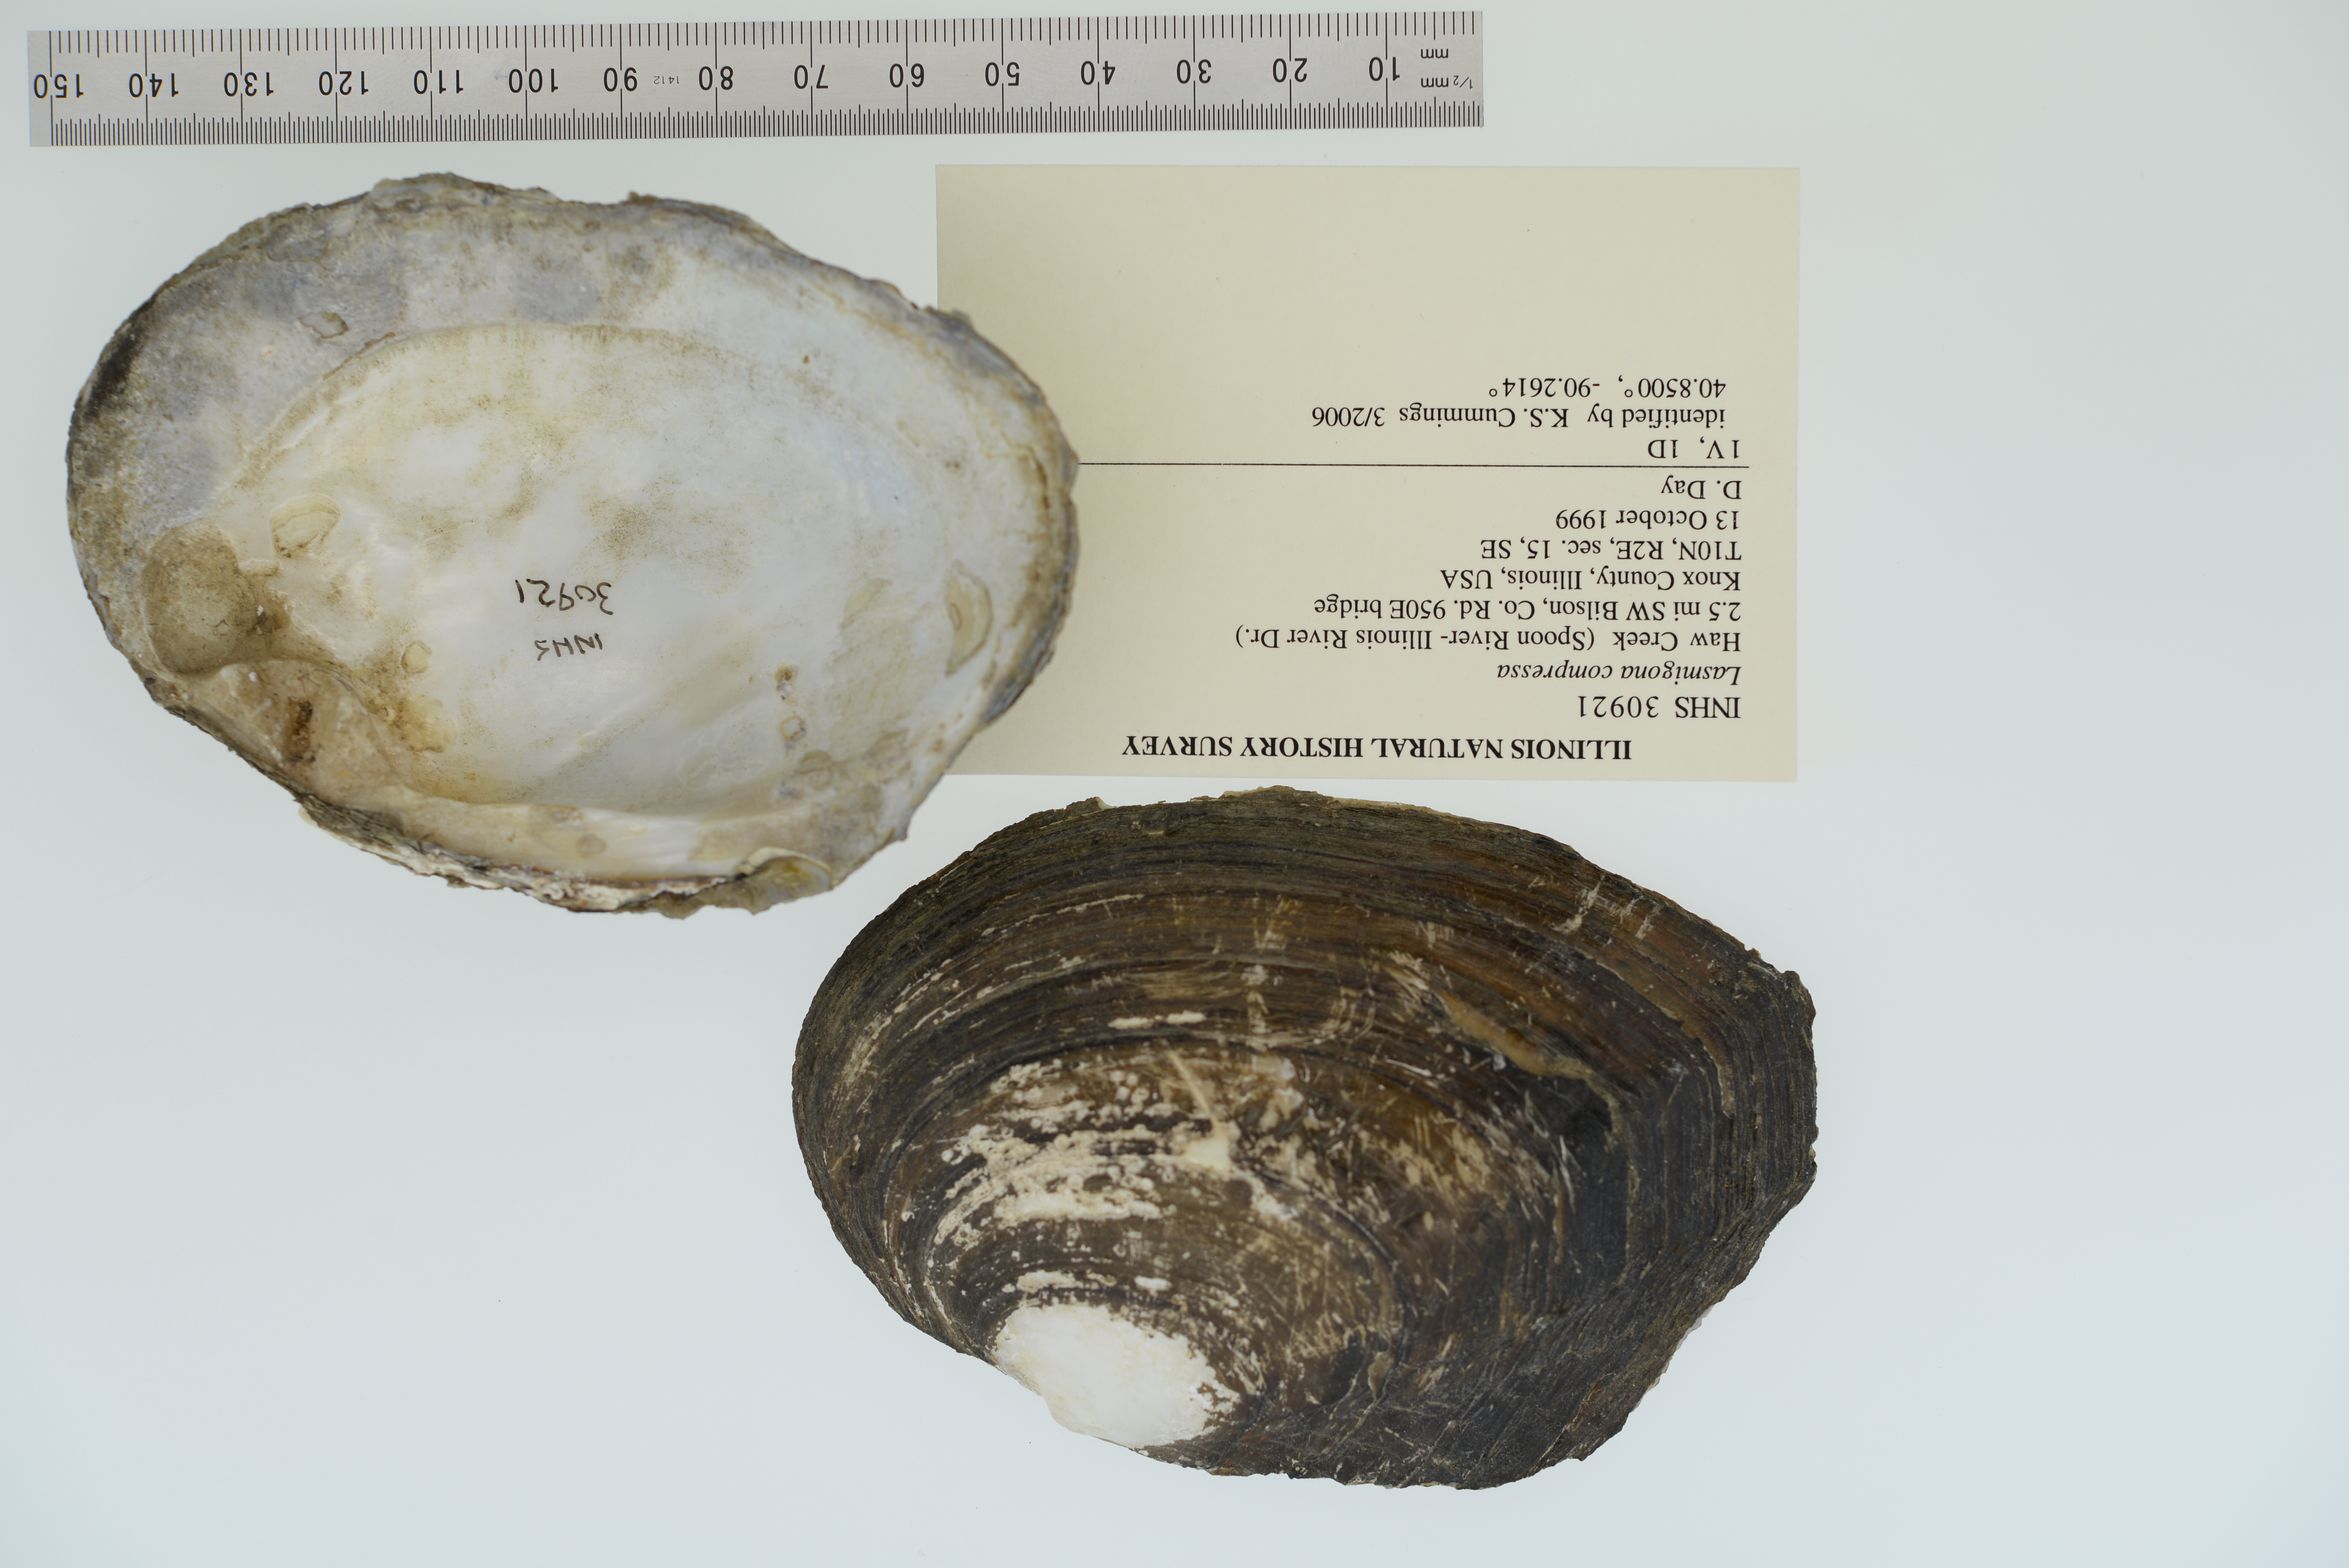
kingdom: Animalia
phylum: Mollusca
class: Bivalvia
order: Unionida
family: Unionidae
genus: Lasmigona
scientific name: Lasmigona compressa
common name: Creek heelsplitter
